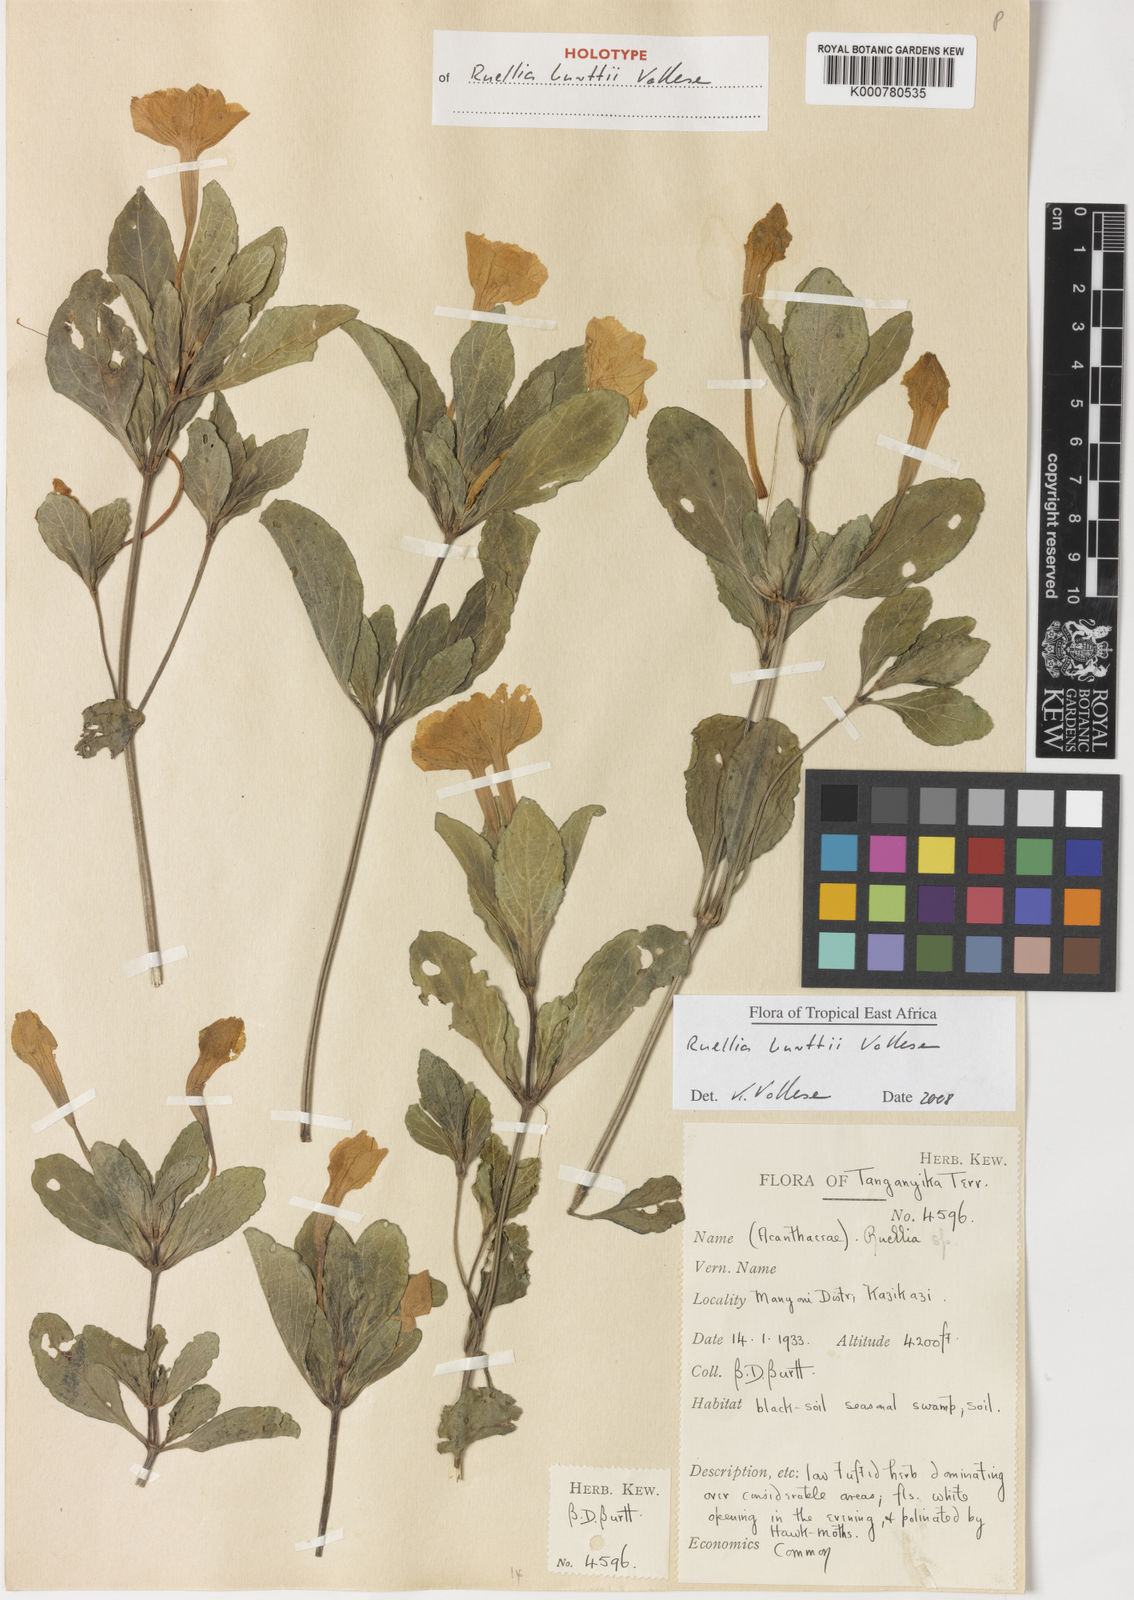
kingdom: Plantae
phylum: Tracheophyta
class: Magnoliopsida
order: Lamiales
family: Acanthaceae
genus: Ruellia
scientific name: Ruellia burttii
